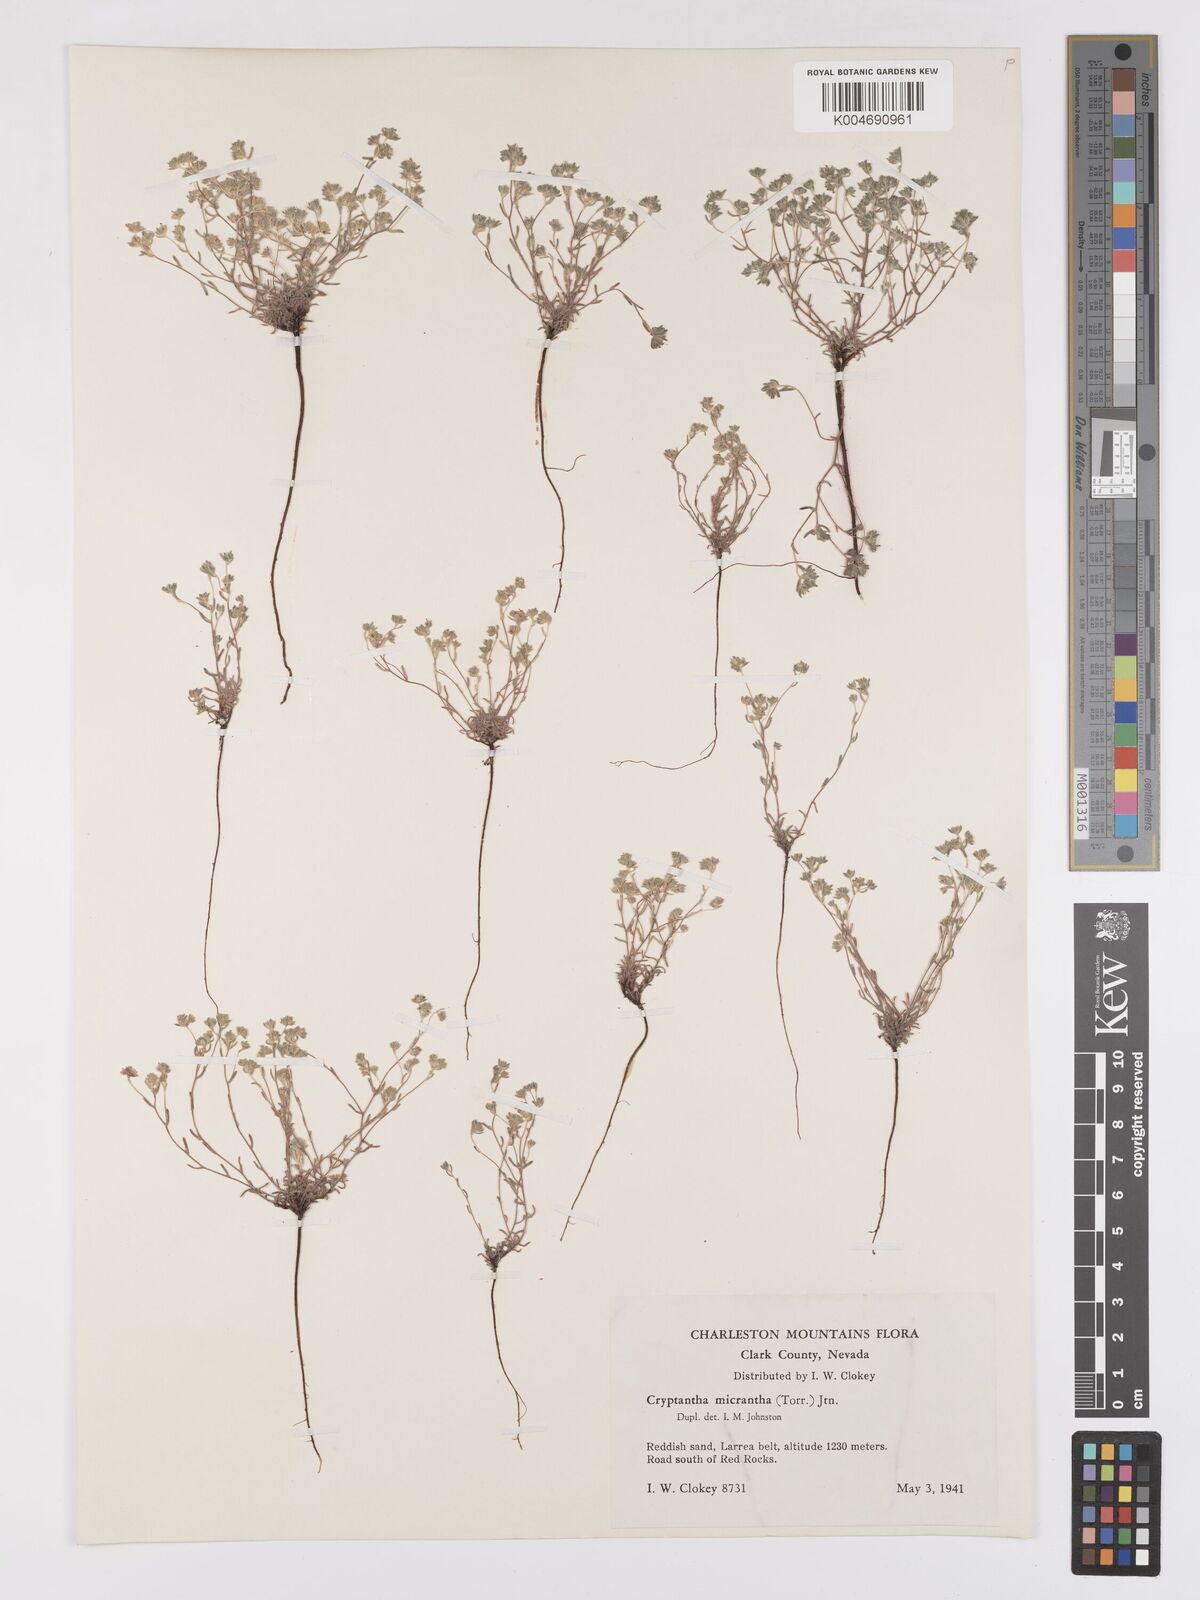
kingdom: Plantae
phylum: Tracheophyta
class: Magnoliopsida
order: Boraginales
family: Boraginaceae
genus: Eremocarya
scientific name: Eremocarya micrantha
